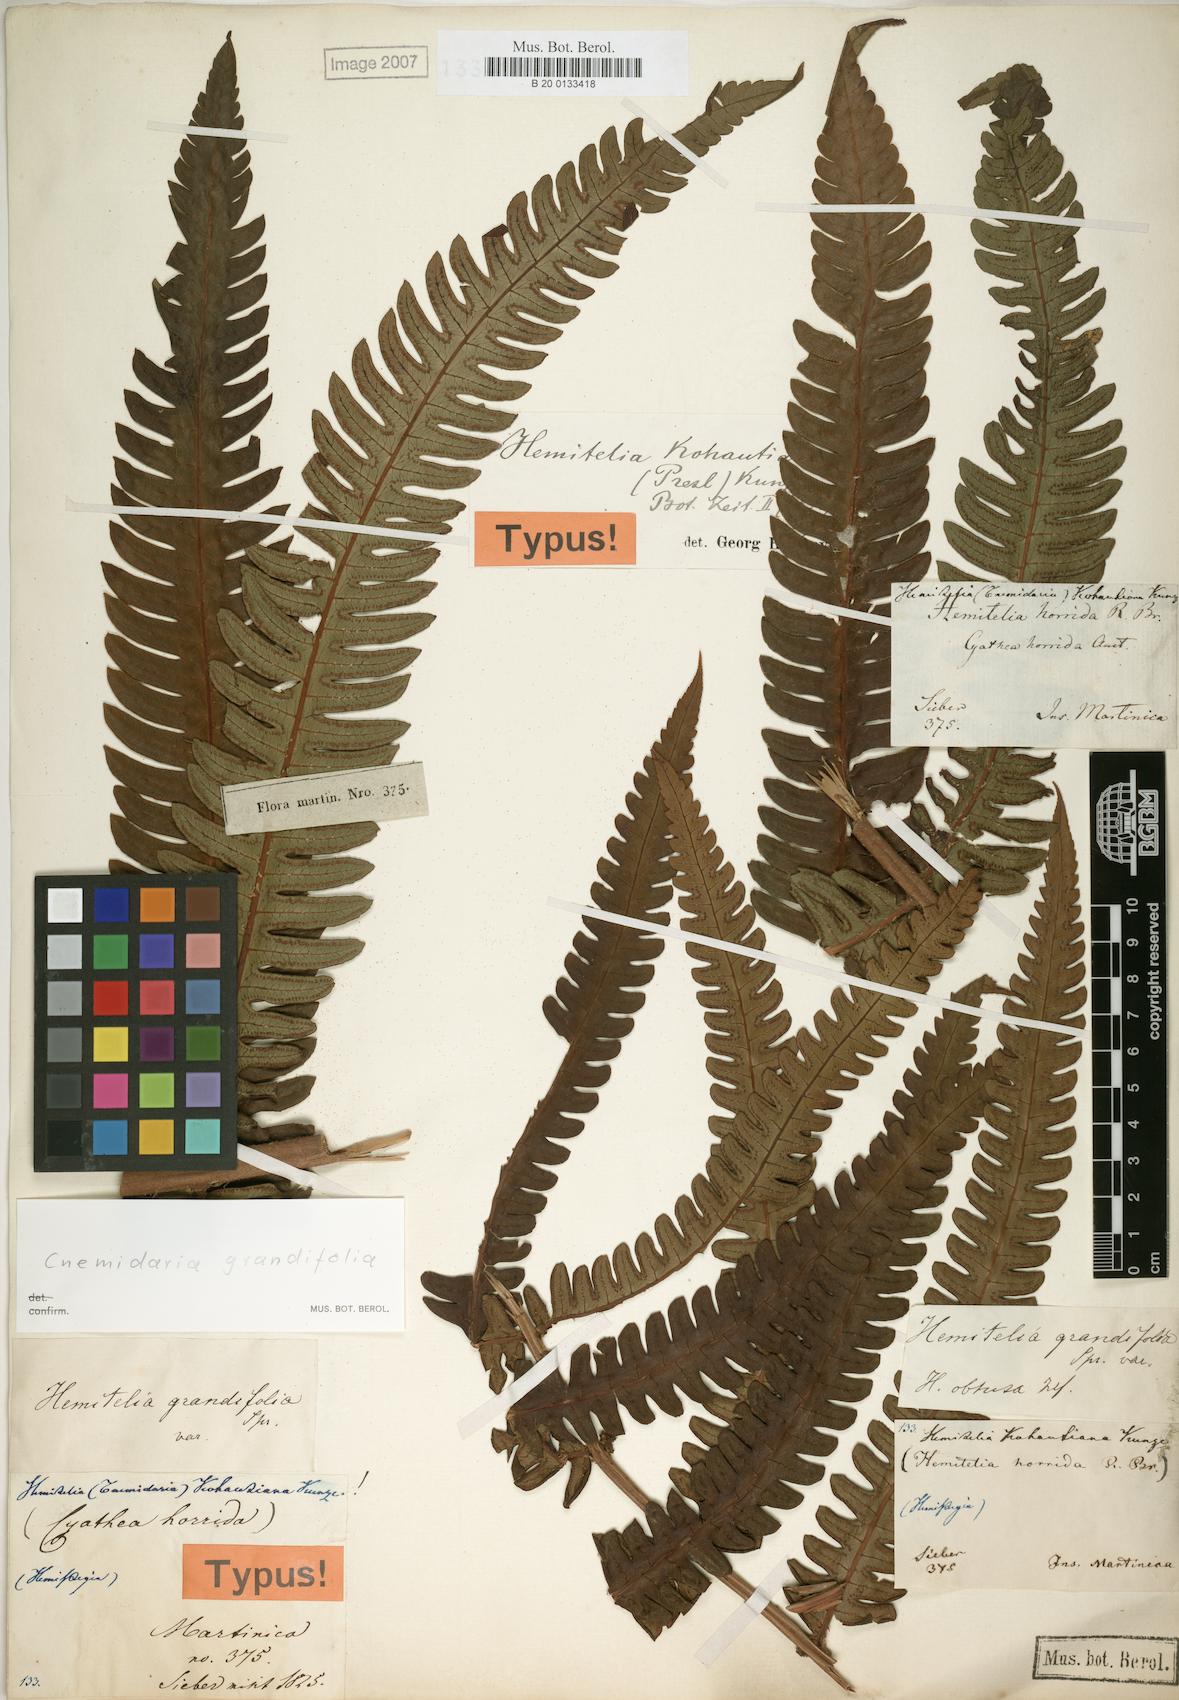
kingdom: Plantae
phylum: Tracheophyta
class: Polypodiopsida
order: Cyatheales
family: Cyatheaceae
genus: Cyathea
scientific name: Cyathea grandifolia
